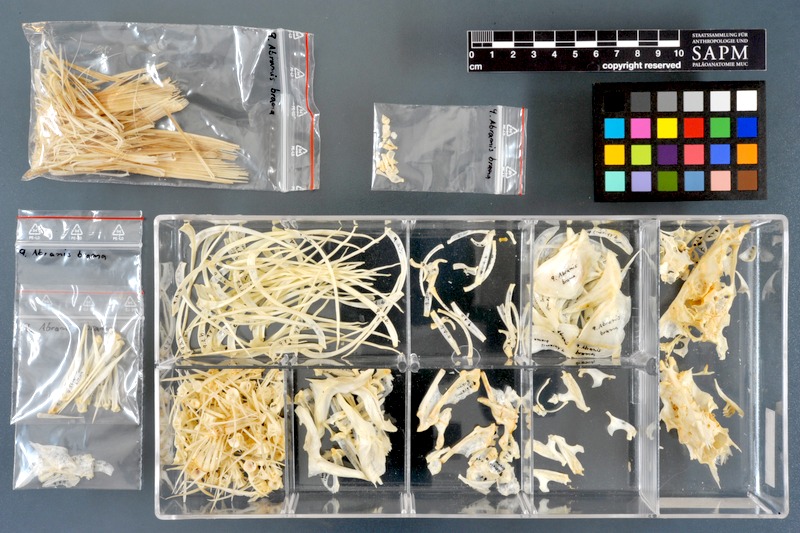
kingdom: Animalia
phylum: Chordata
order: Cypriniformes
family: Cyprinidae
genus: Abramis
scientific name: Abramis brama
